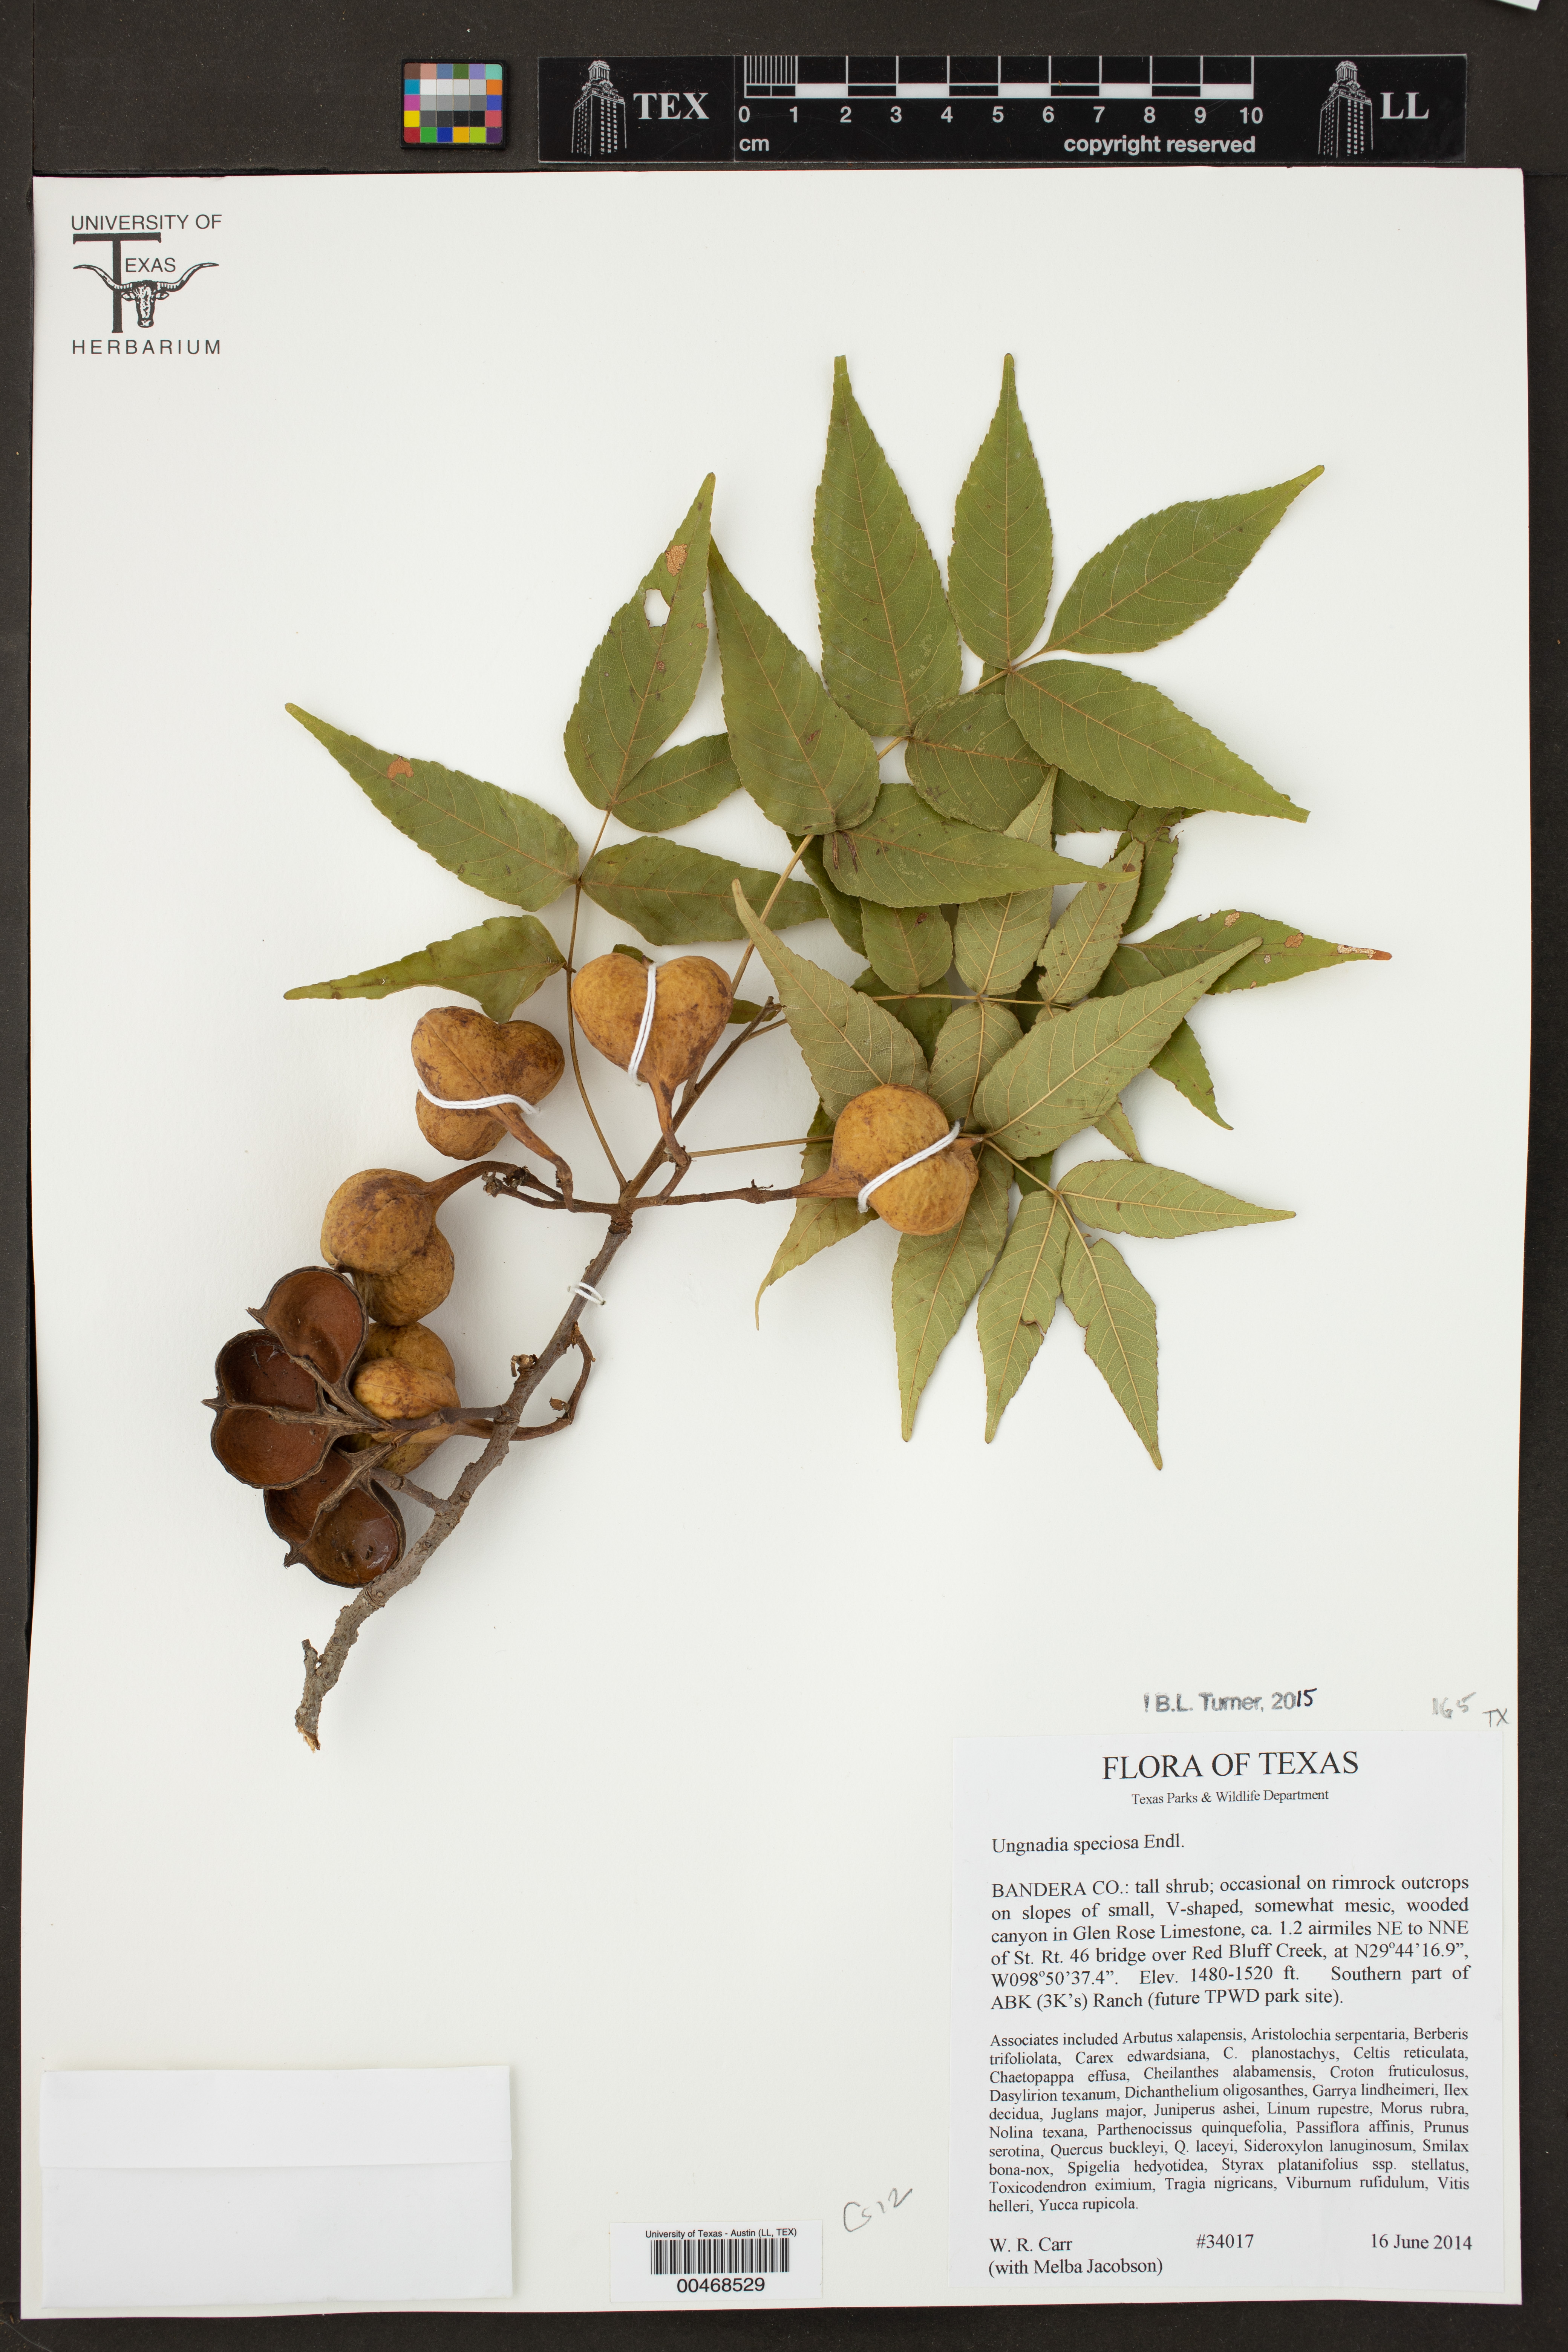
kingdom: Plantae
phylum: Tracheophyta
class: Magnoliopsida
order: Sapindales
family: Sapindaceae
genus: Ungnadia
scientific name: Ungnadia speciosa
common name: Texas-buckeye
